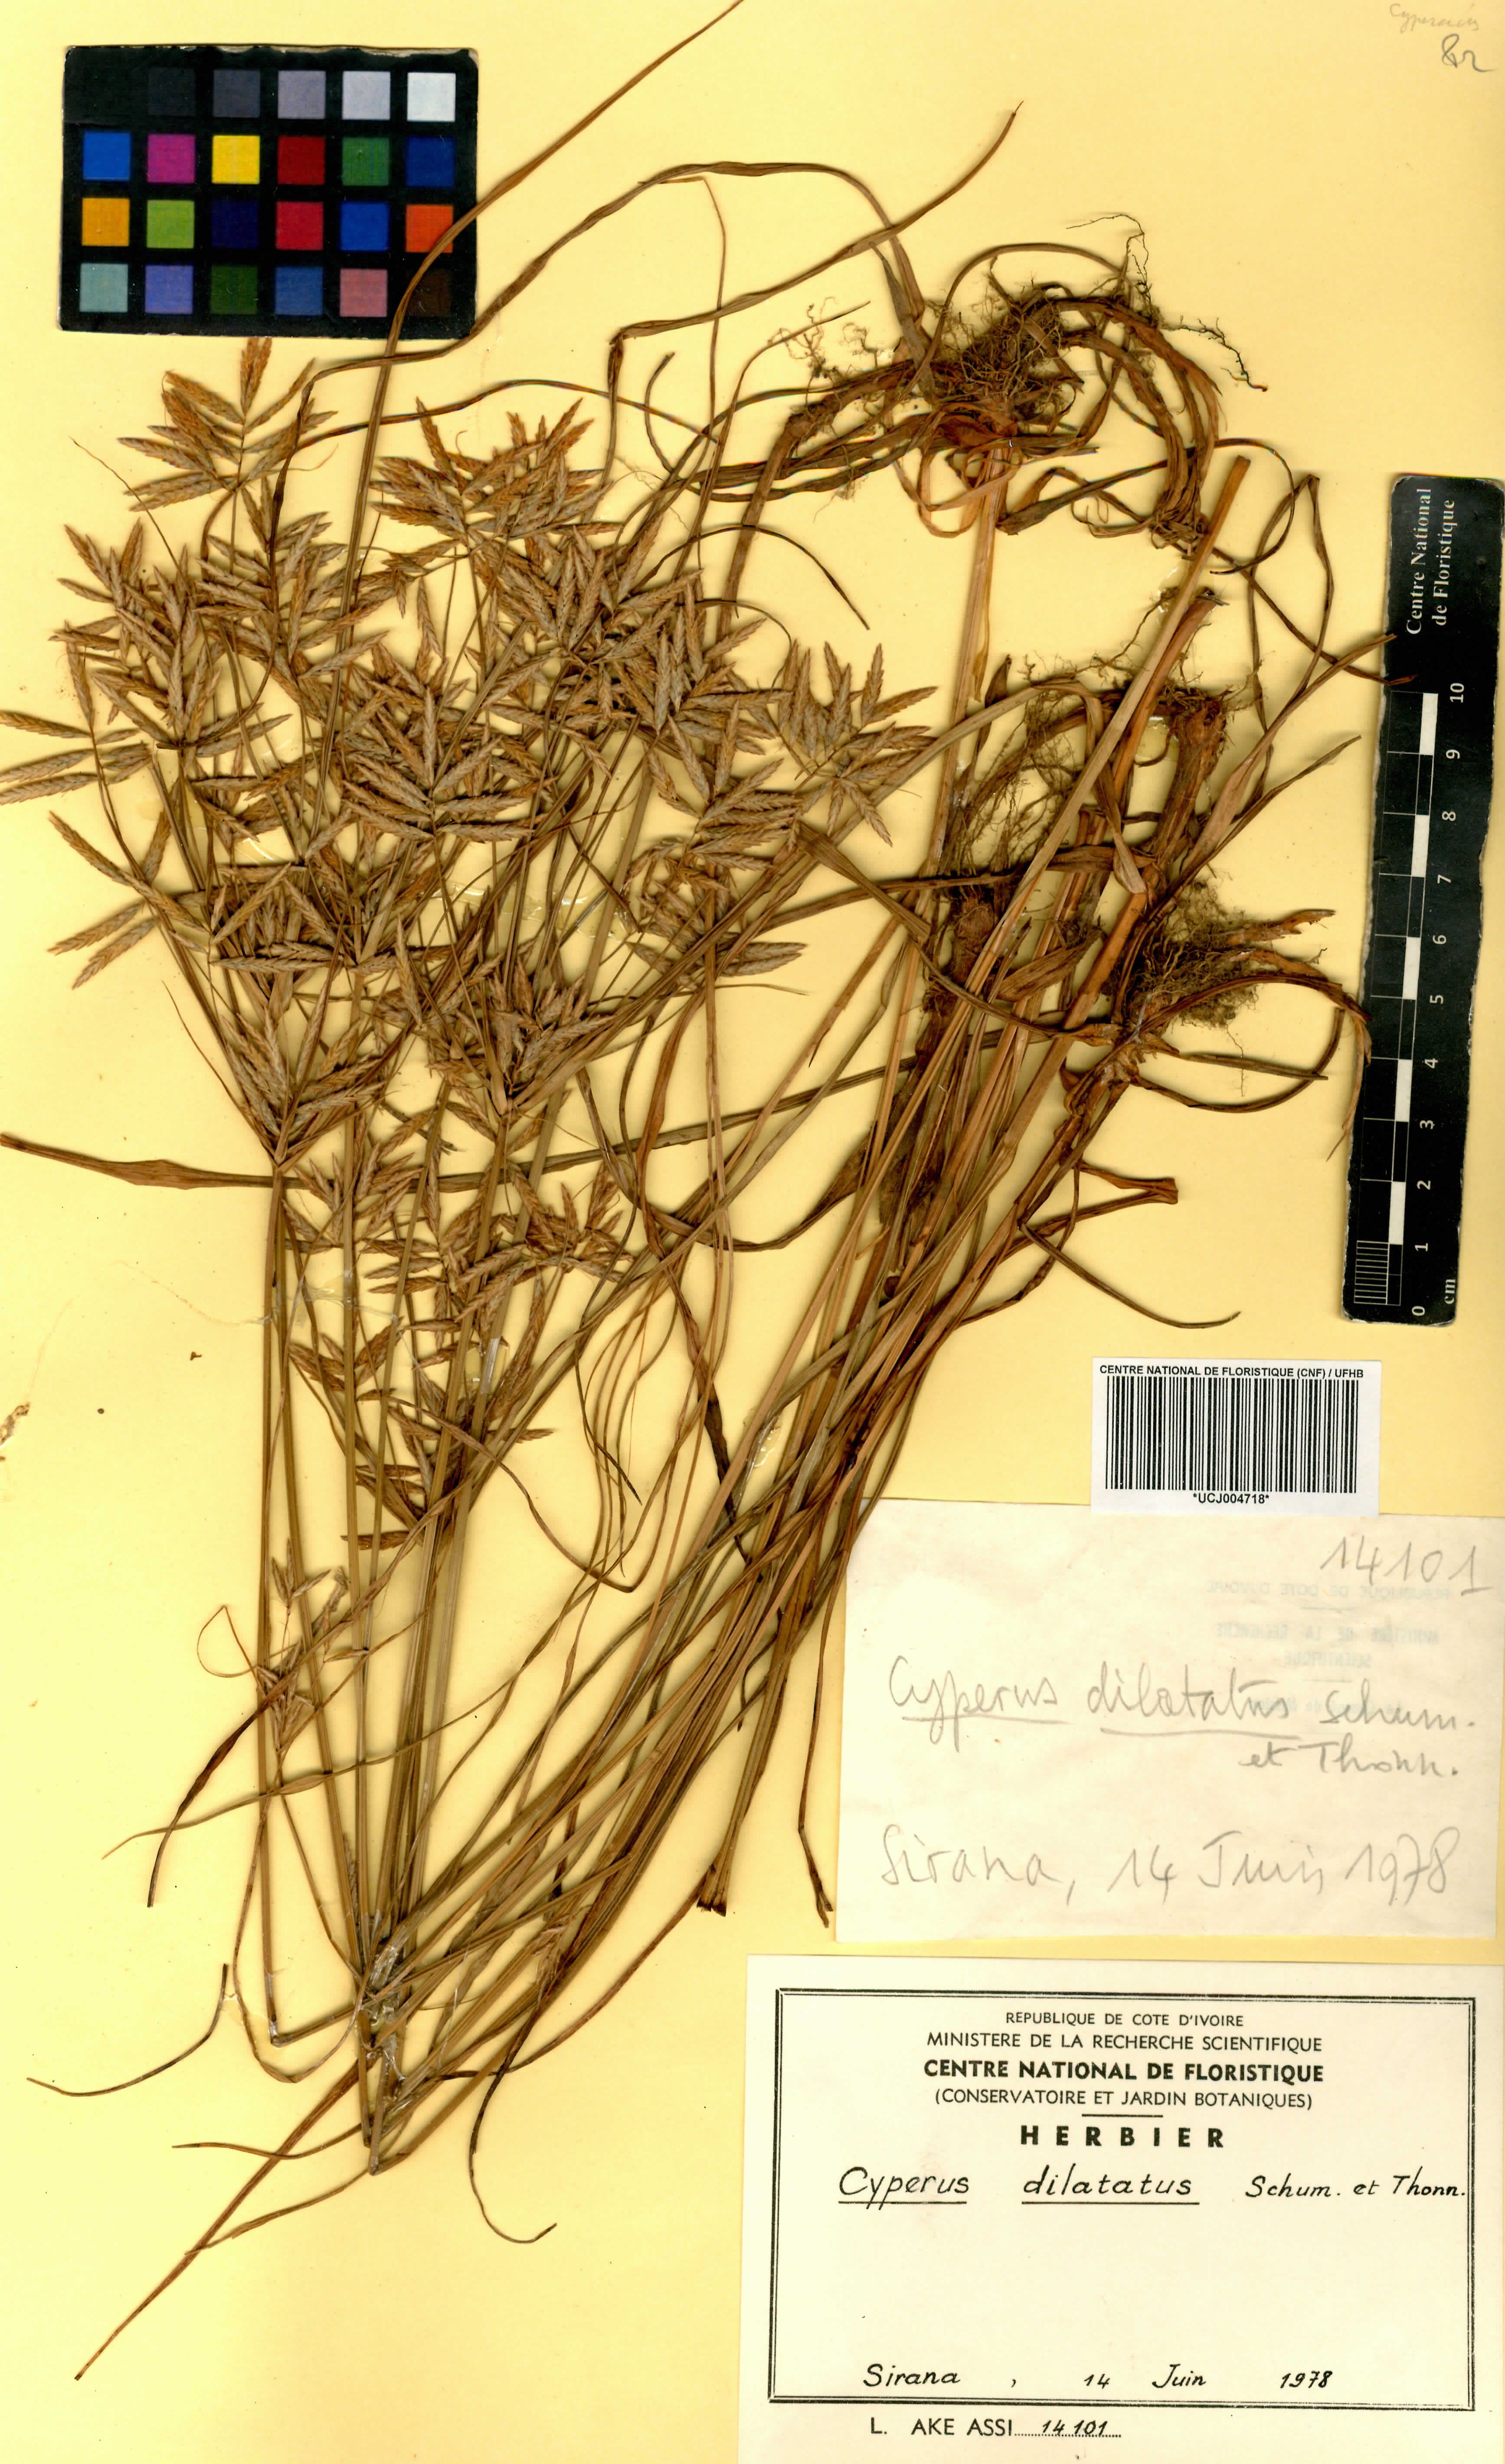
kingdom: Plantae
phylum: Tracheophyta
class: Liliopsida
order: Poales
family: Cyperaceae
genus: Cyperus
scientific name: Cyperus dilatatus
